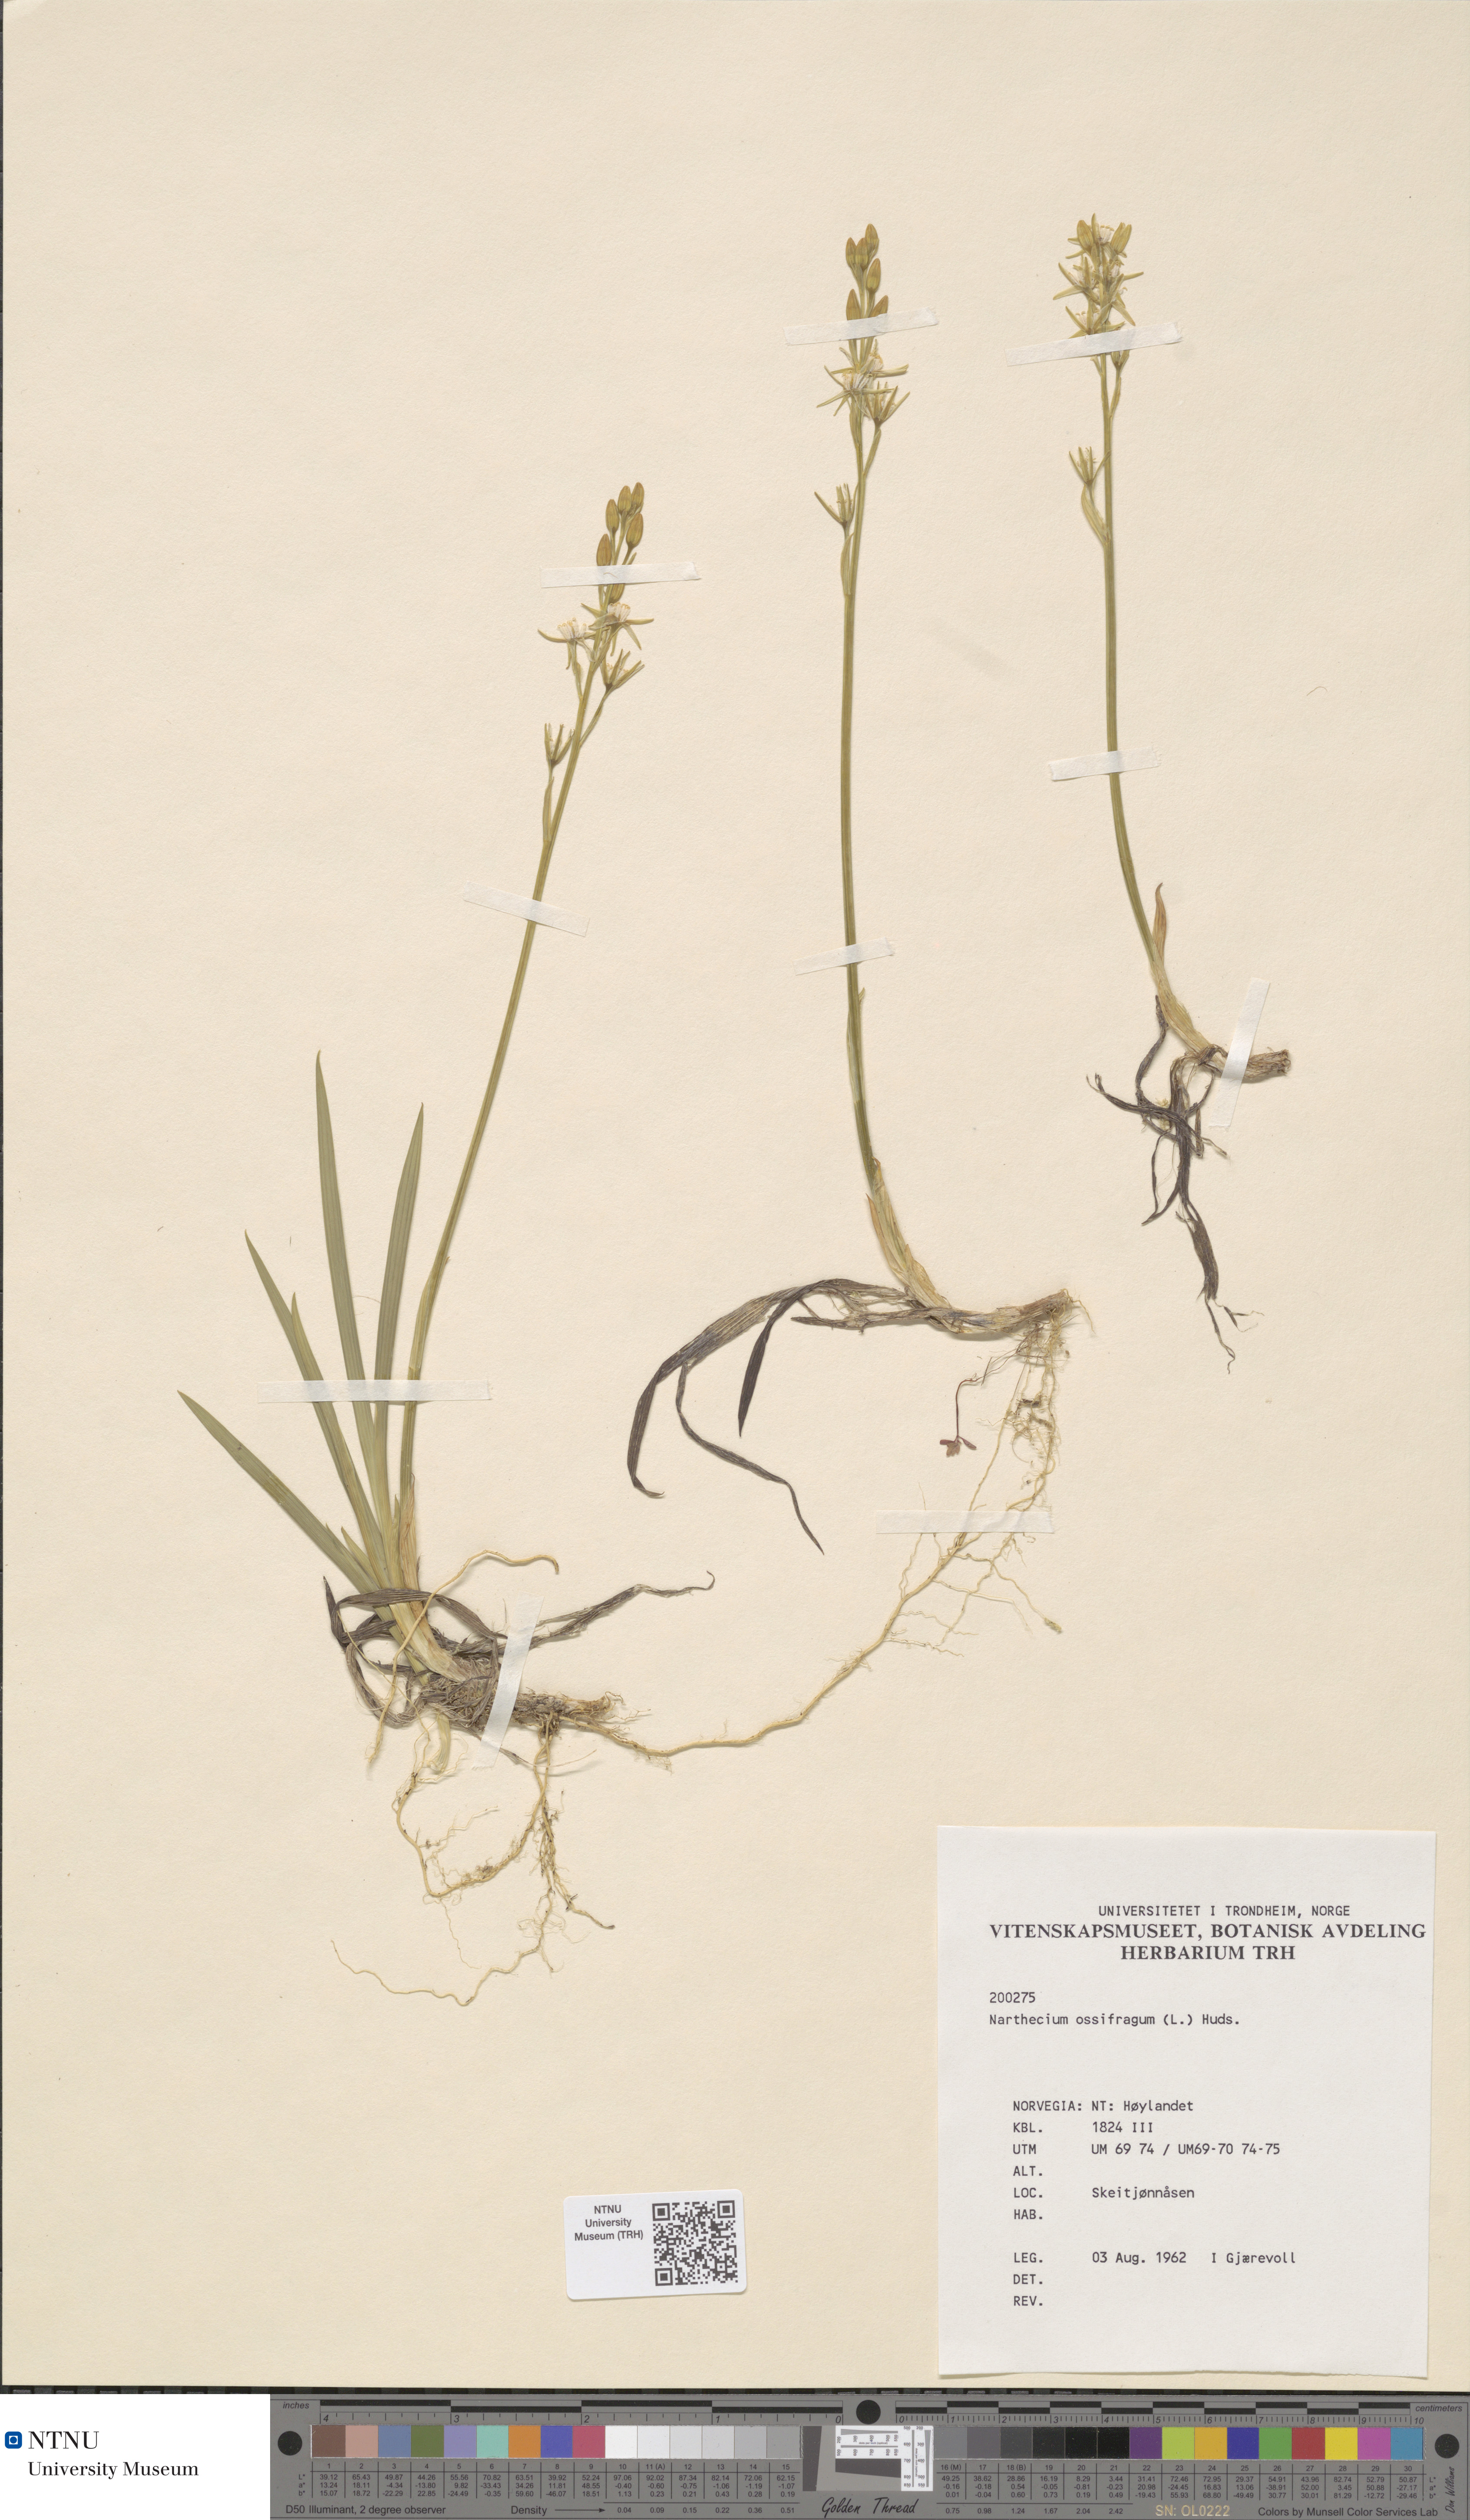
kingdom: Plantae
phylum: Tracheophyta
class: Liliopsida
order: Dioscoreales
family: Nartheciaceae
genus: Narthecium
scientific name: Narthecium ossifragum
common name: Bog asphodel
